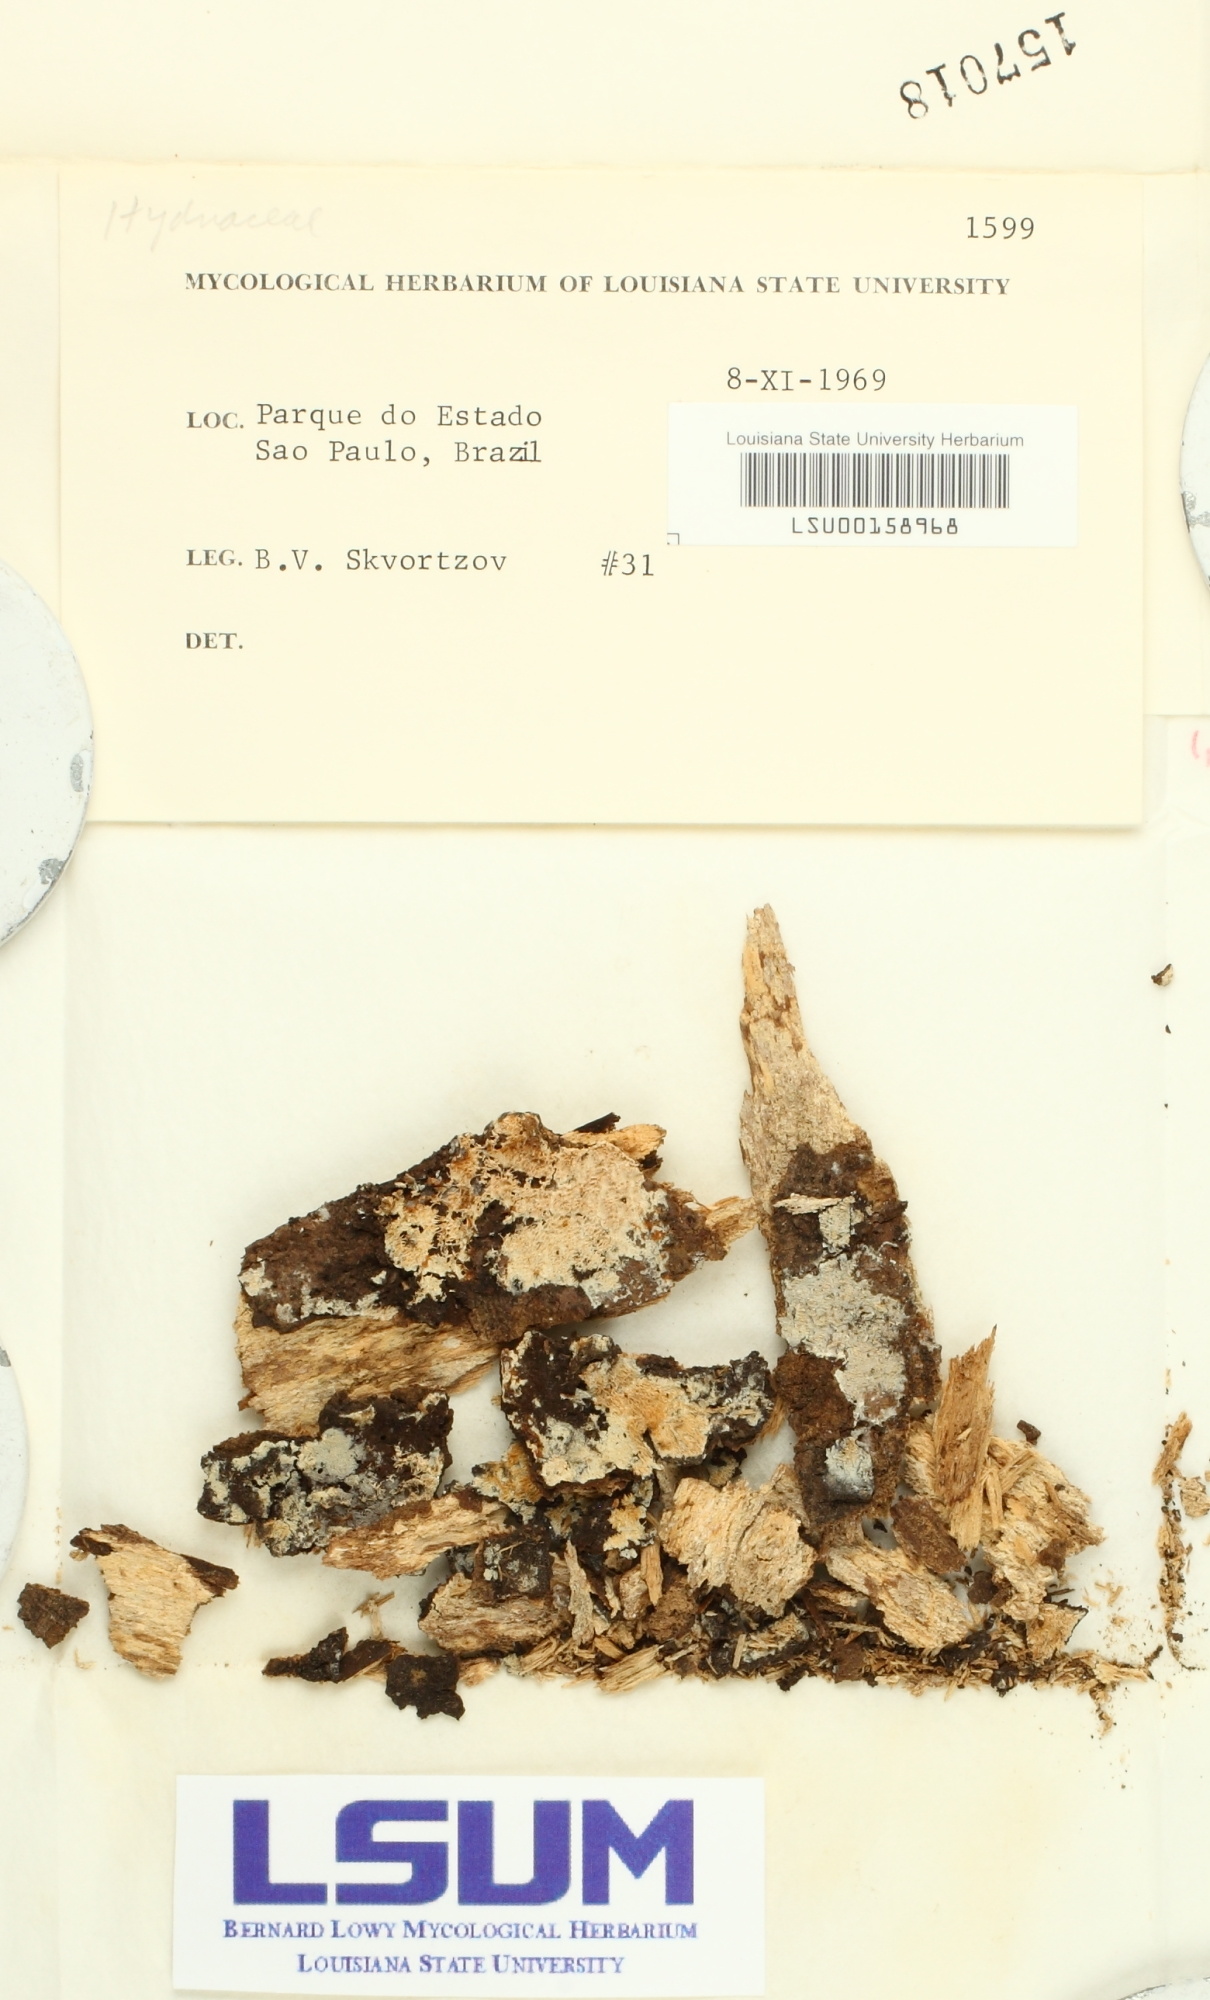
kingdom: Fungi
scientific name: Fungi
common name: Fungi
